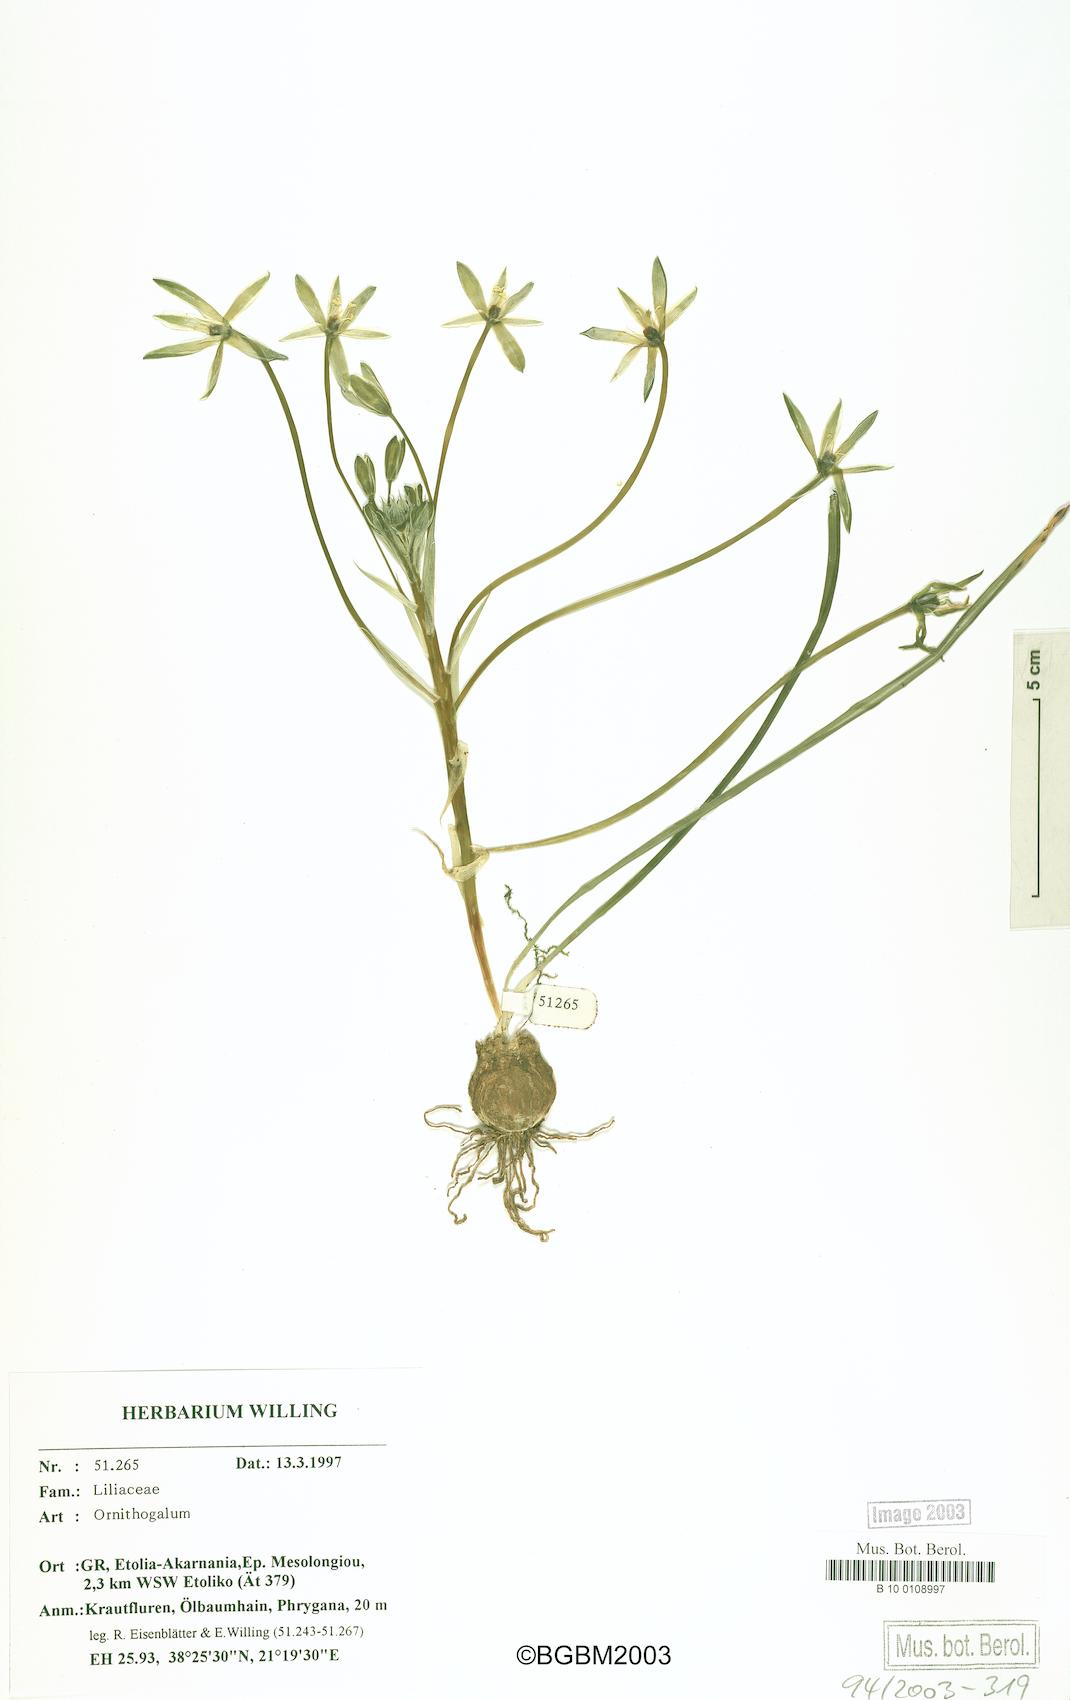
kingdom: Plantae
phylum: Tracheophyta
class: Liliopsida
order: Asparagales
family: Asparagaceae
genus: Ornithogalum
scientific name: Ornithogalum
